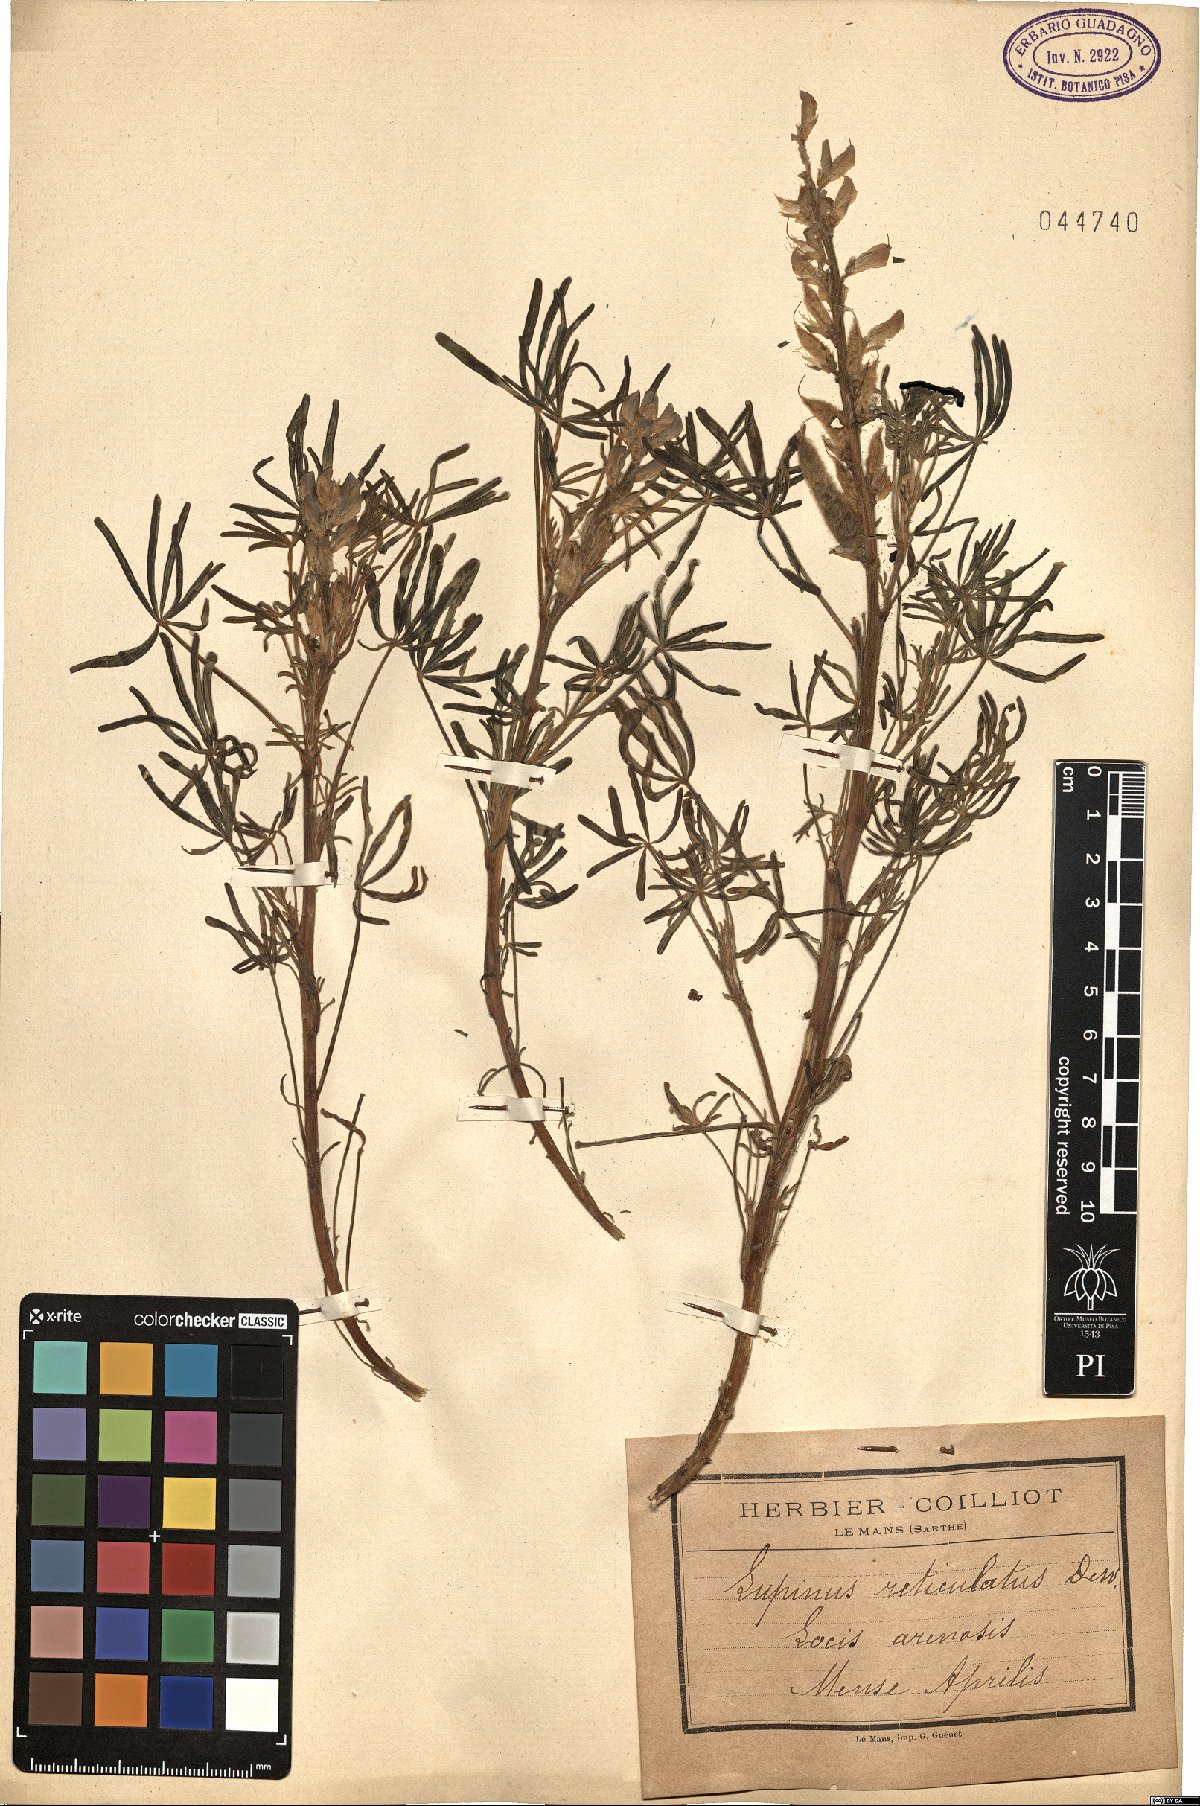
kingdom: Plantae
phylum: Tracheophyta
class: Magnoliopsida
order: Fabales
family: Fabaceae
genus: Lupinus
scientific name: Lupinus angustifolius
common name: Narrow-leaved lupin
